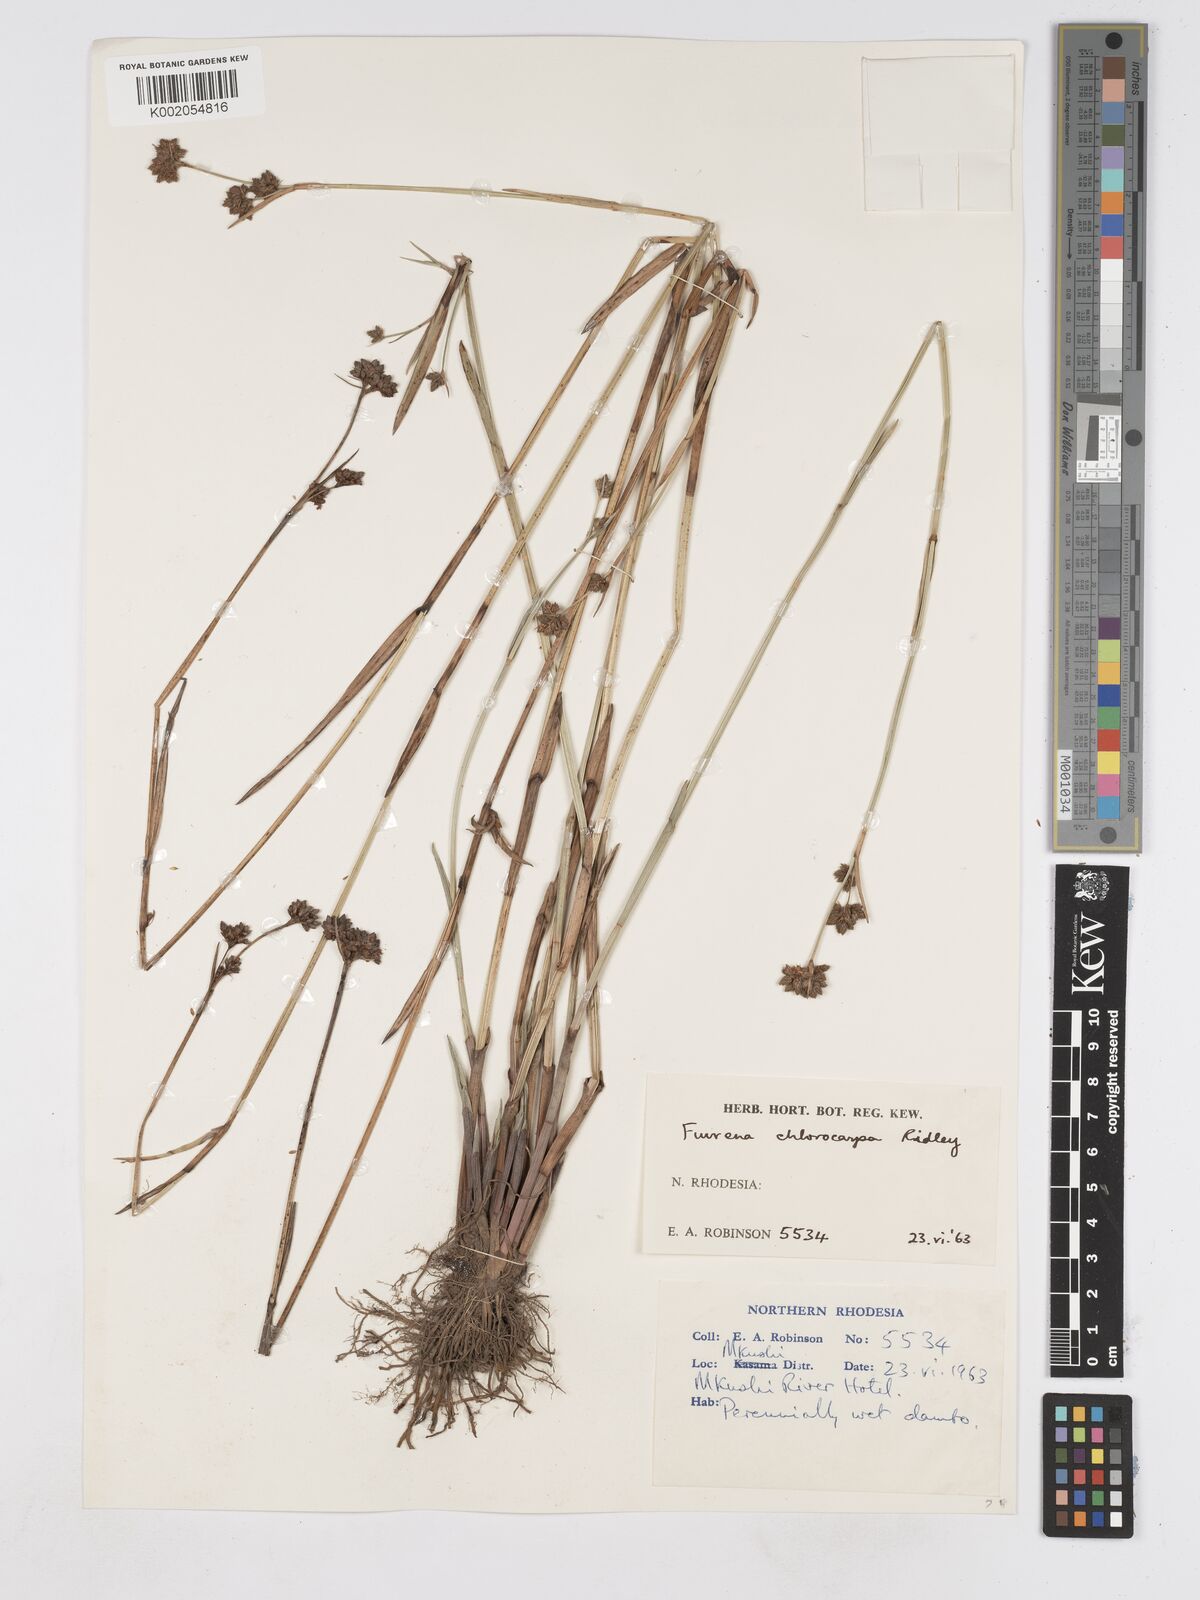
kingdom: Plantae
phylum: Tracheophyta
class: Liliopsida
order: Poales
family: Cyperaceae
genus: Fuirena
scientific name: Fuirena stricta
